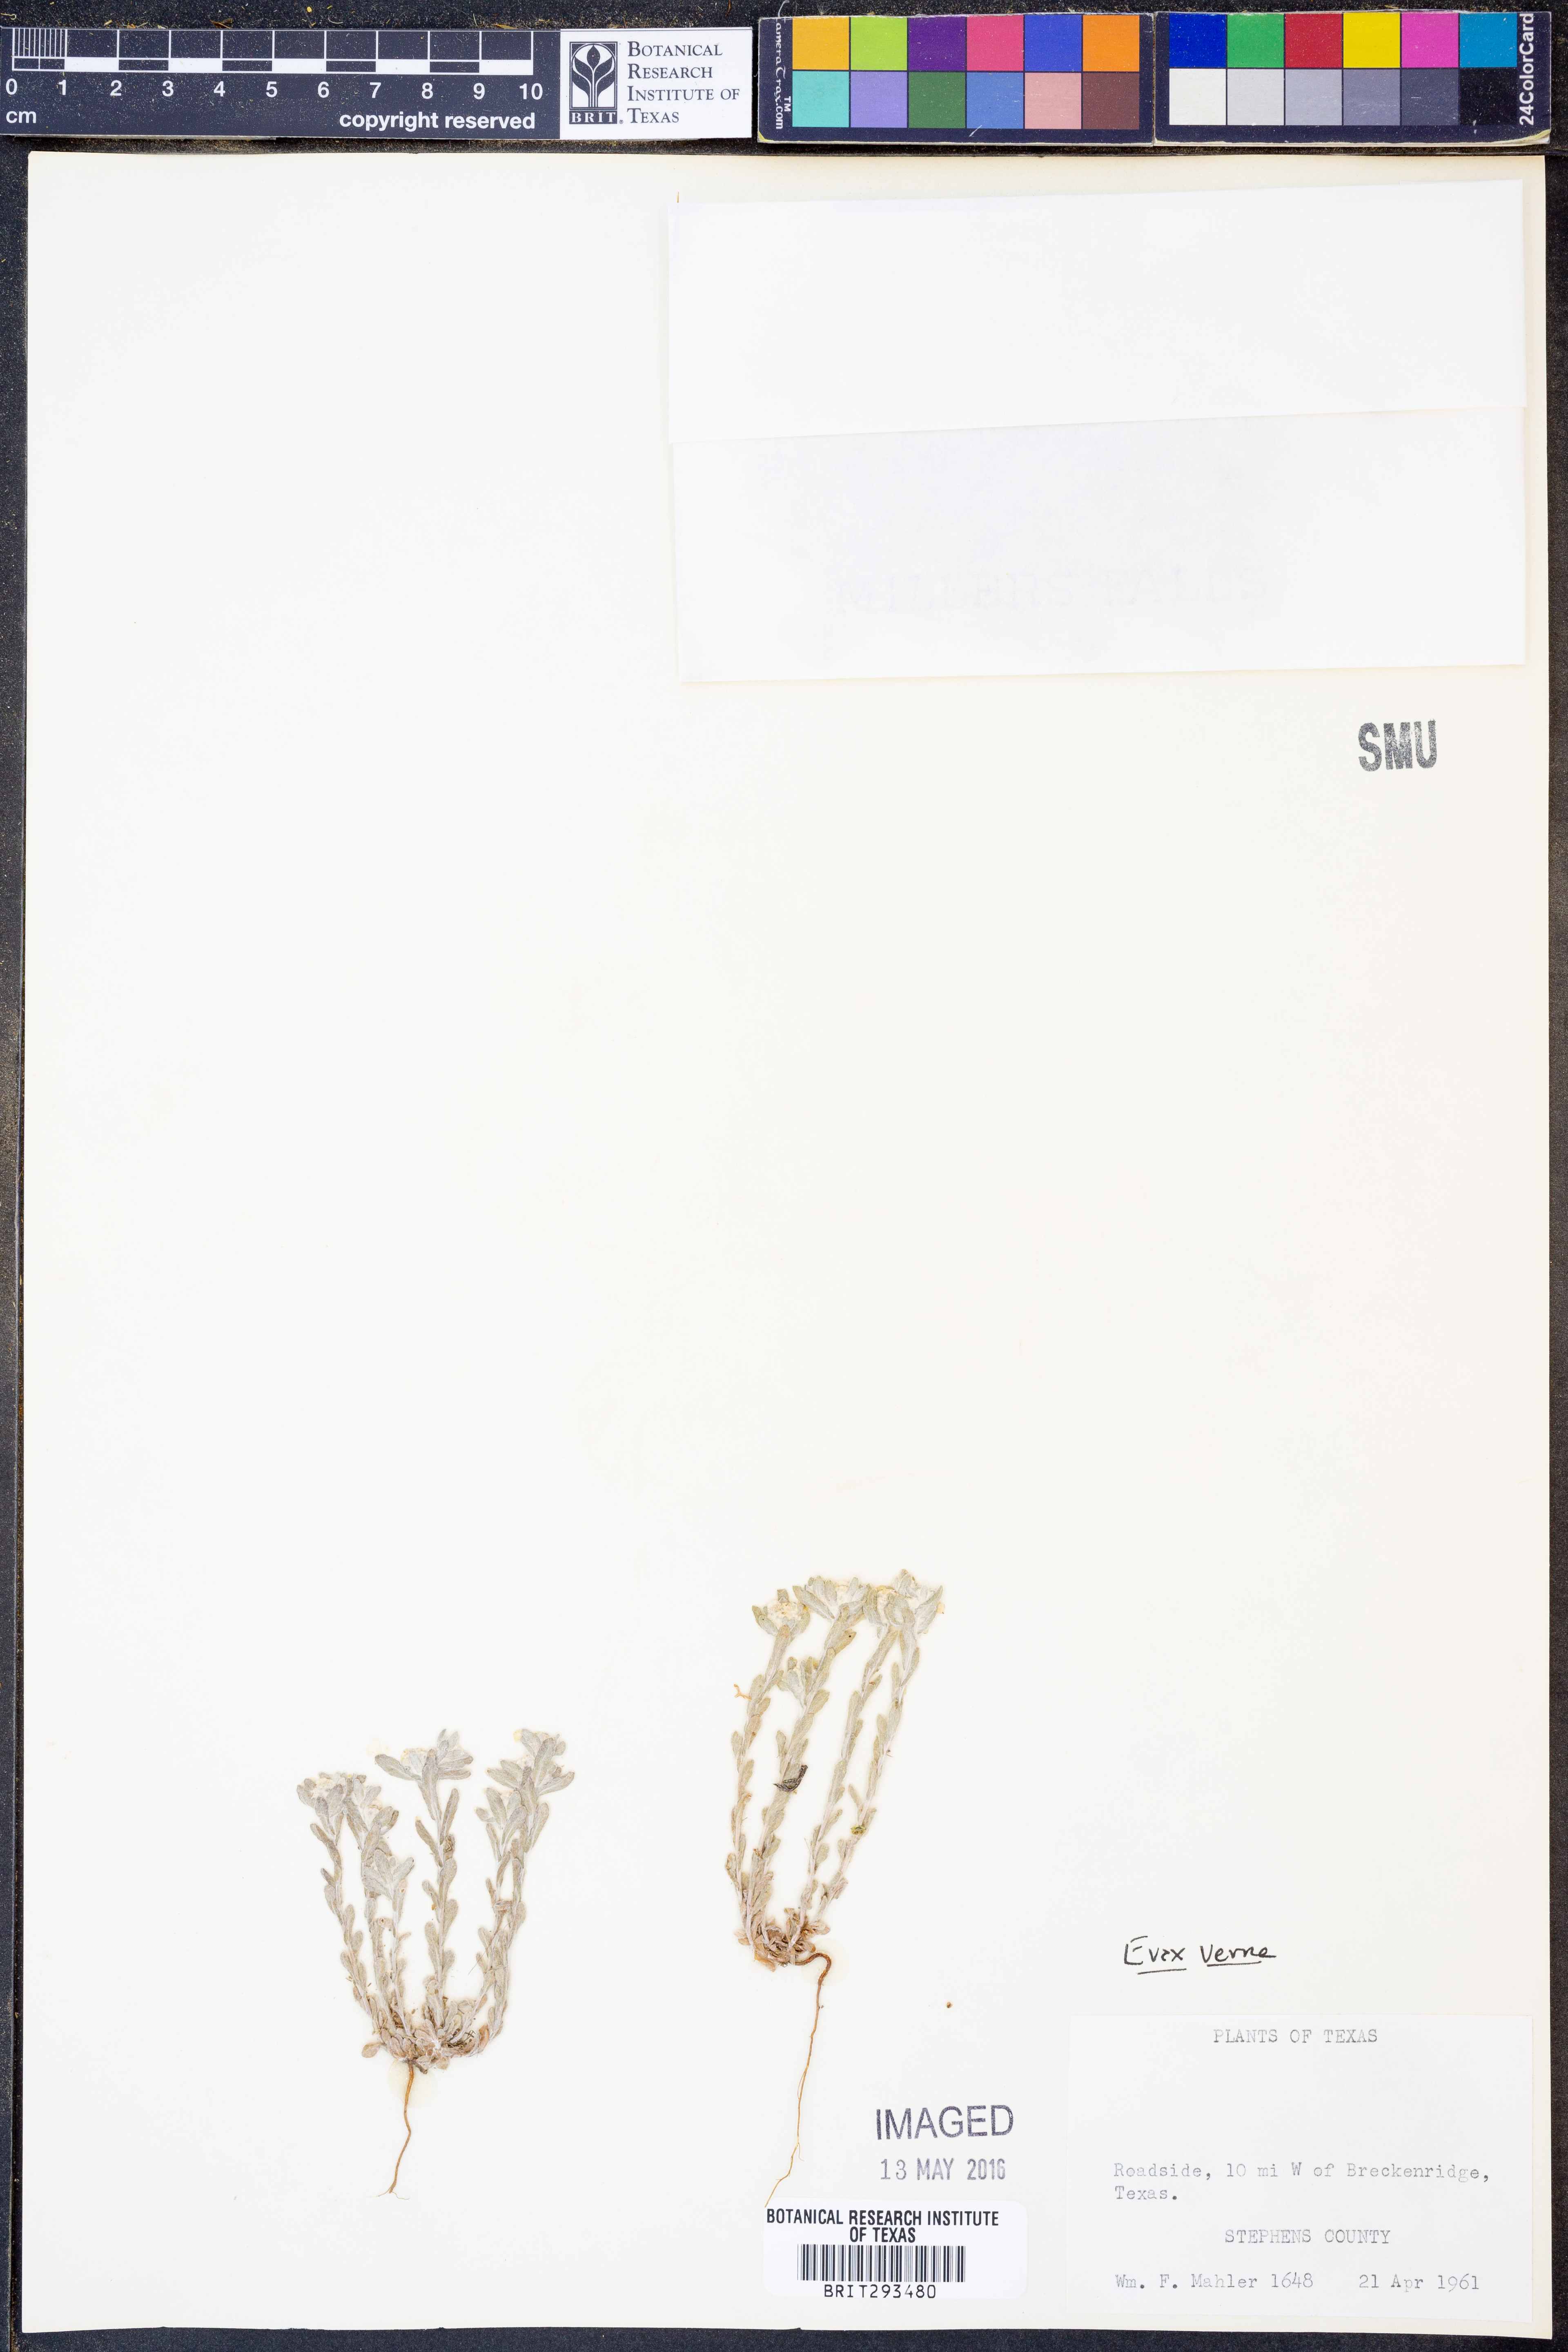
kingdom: Plantae
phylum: Tracheophyta
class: Magnoliopsida
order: Asterales
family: Asteraceae
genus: Diaperia
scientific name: Diaperia verna
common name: Many-stem rabbit-tobacco
